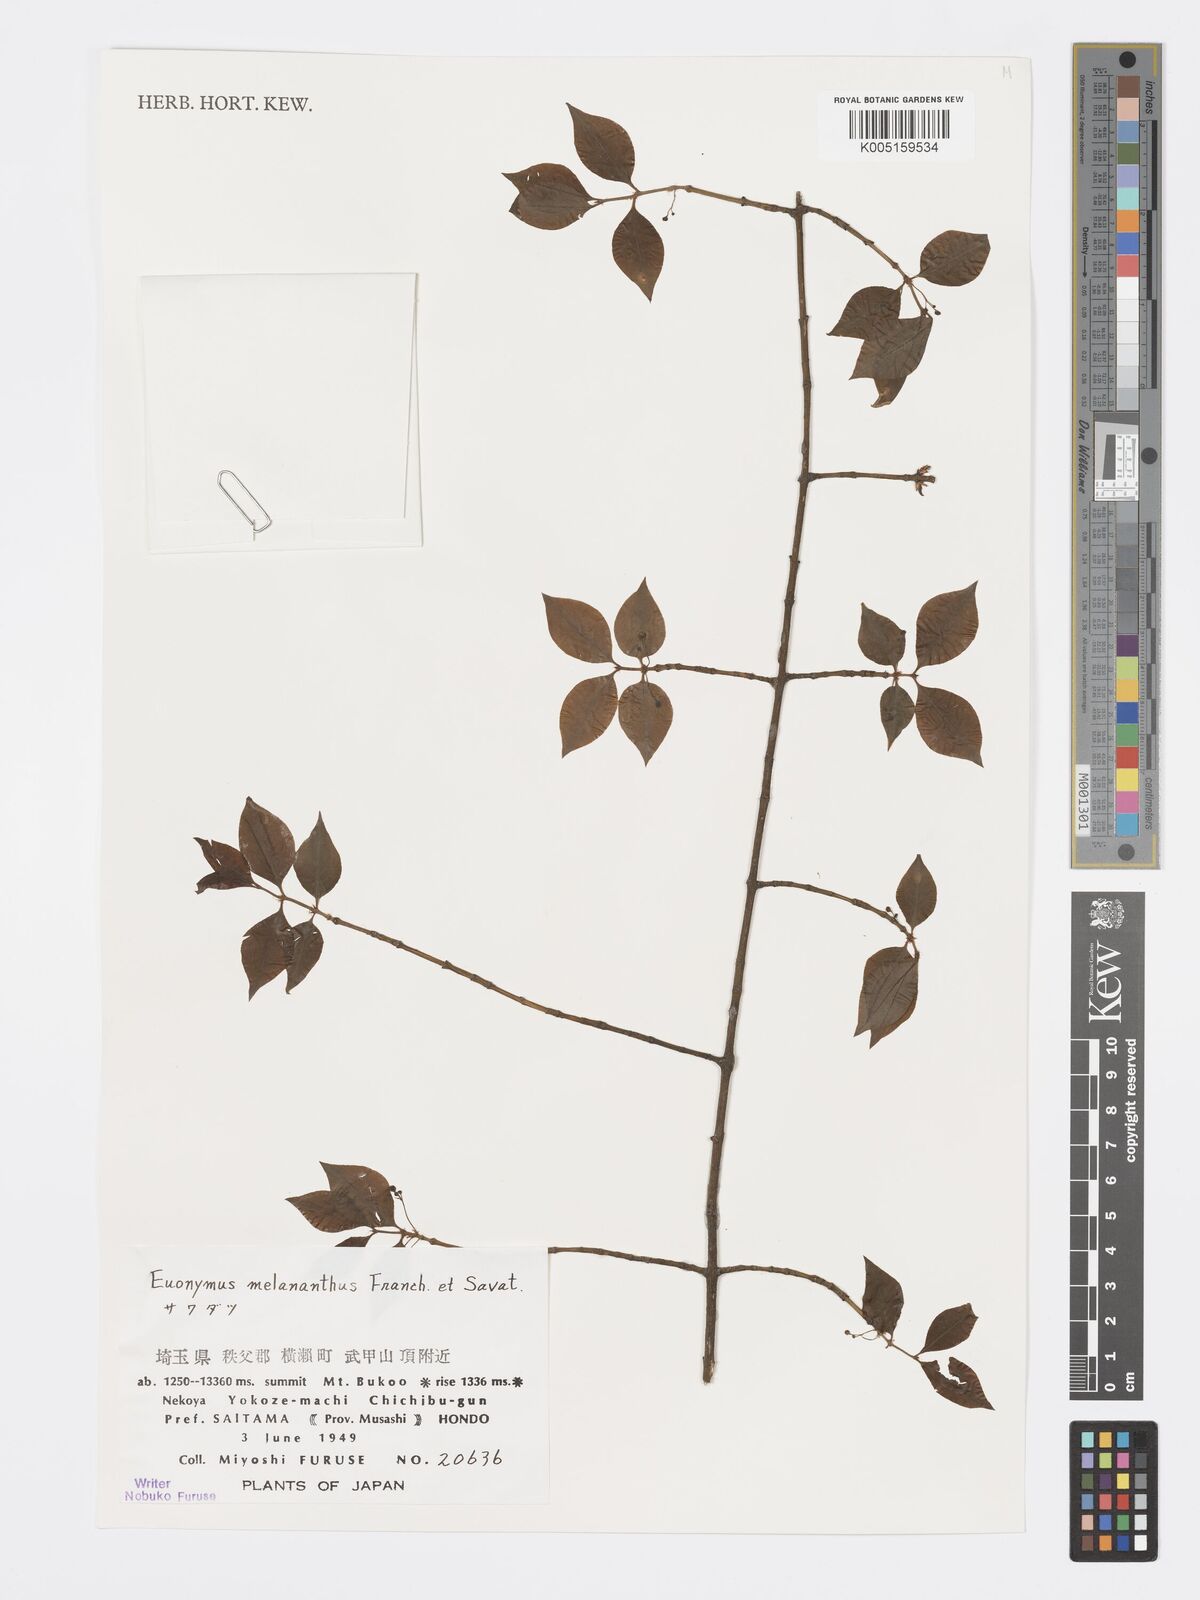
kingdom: Plantae
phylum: Tracheophyta
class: Magnoliopsida
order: Celastrales
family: Celastraceae
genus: Euonymus
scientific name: Euonymus melananthus
